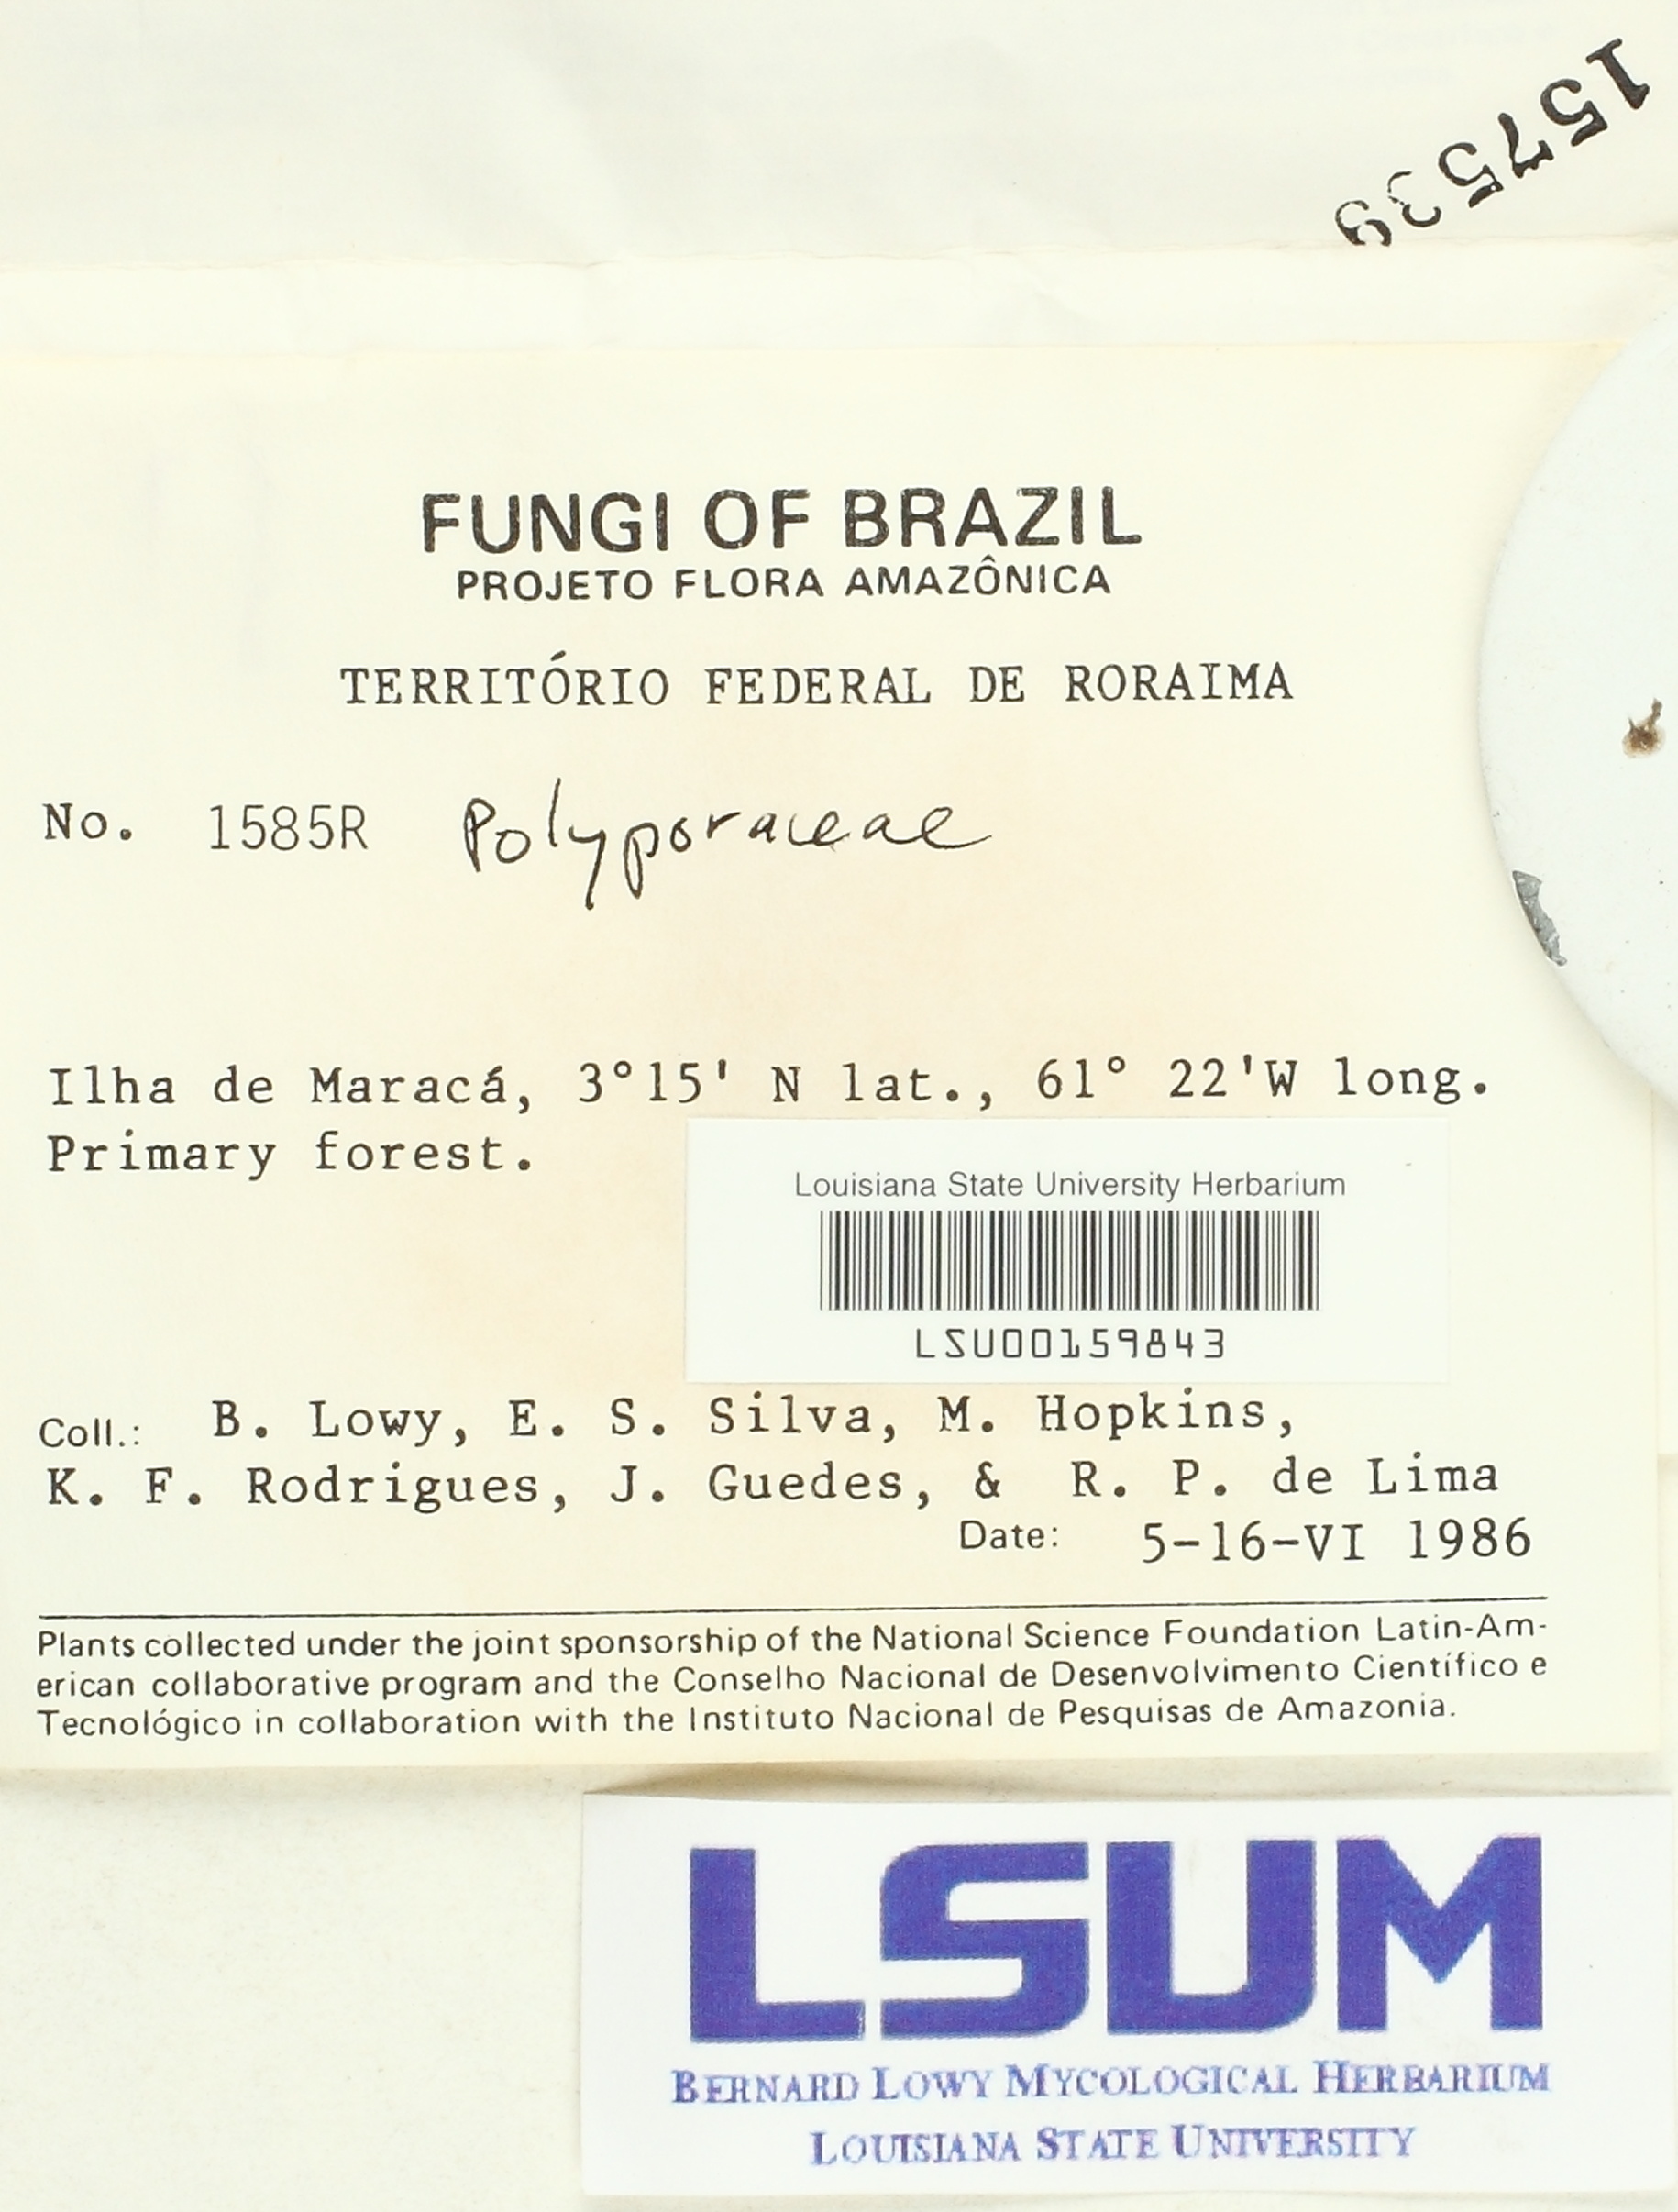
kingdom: Fungi
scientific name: Fungi
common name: Fungi
